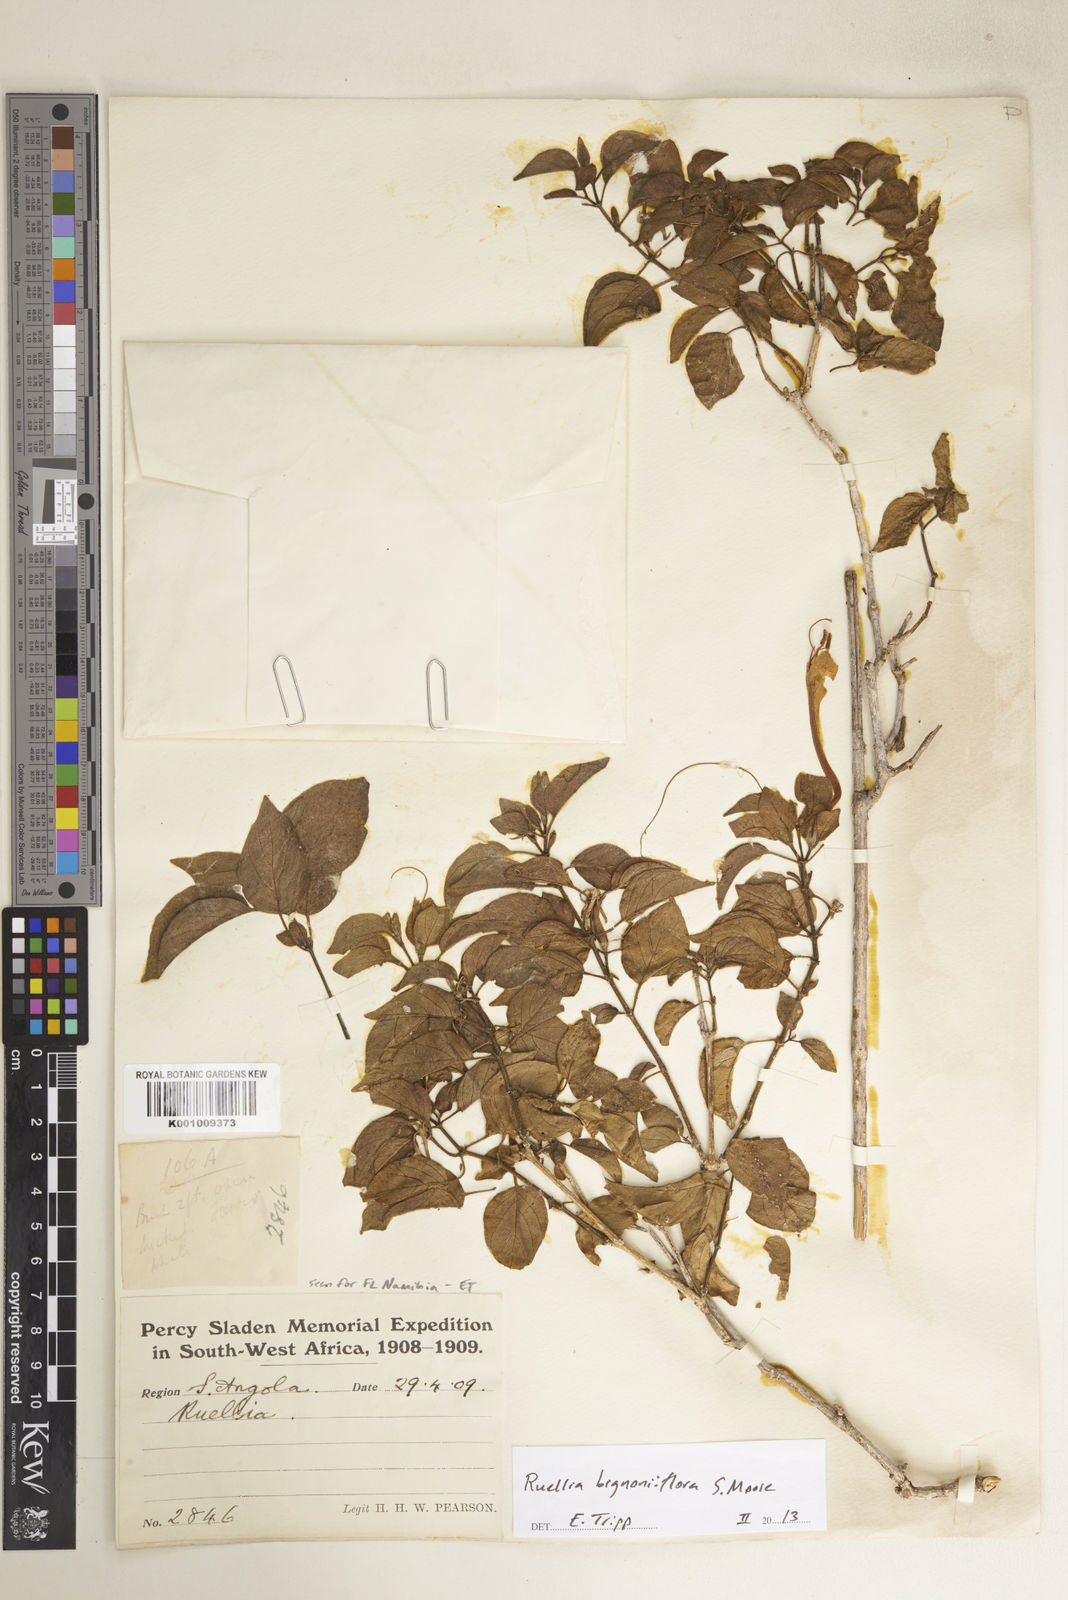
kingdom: Plantae
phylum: Tracheophyta
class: Magnoliopsida
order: Lamiales
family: Acanthaceae
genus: Ruellia
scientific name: Ruellia bignoniiflora
